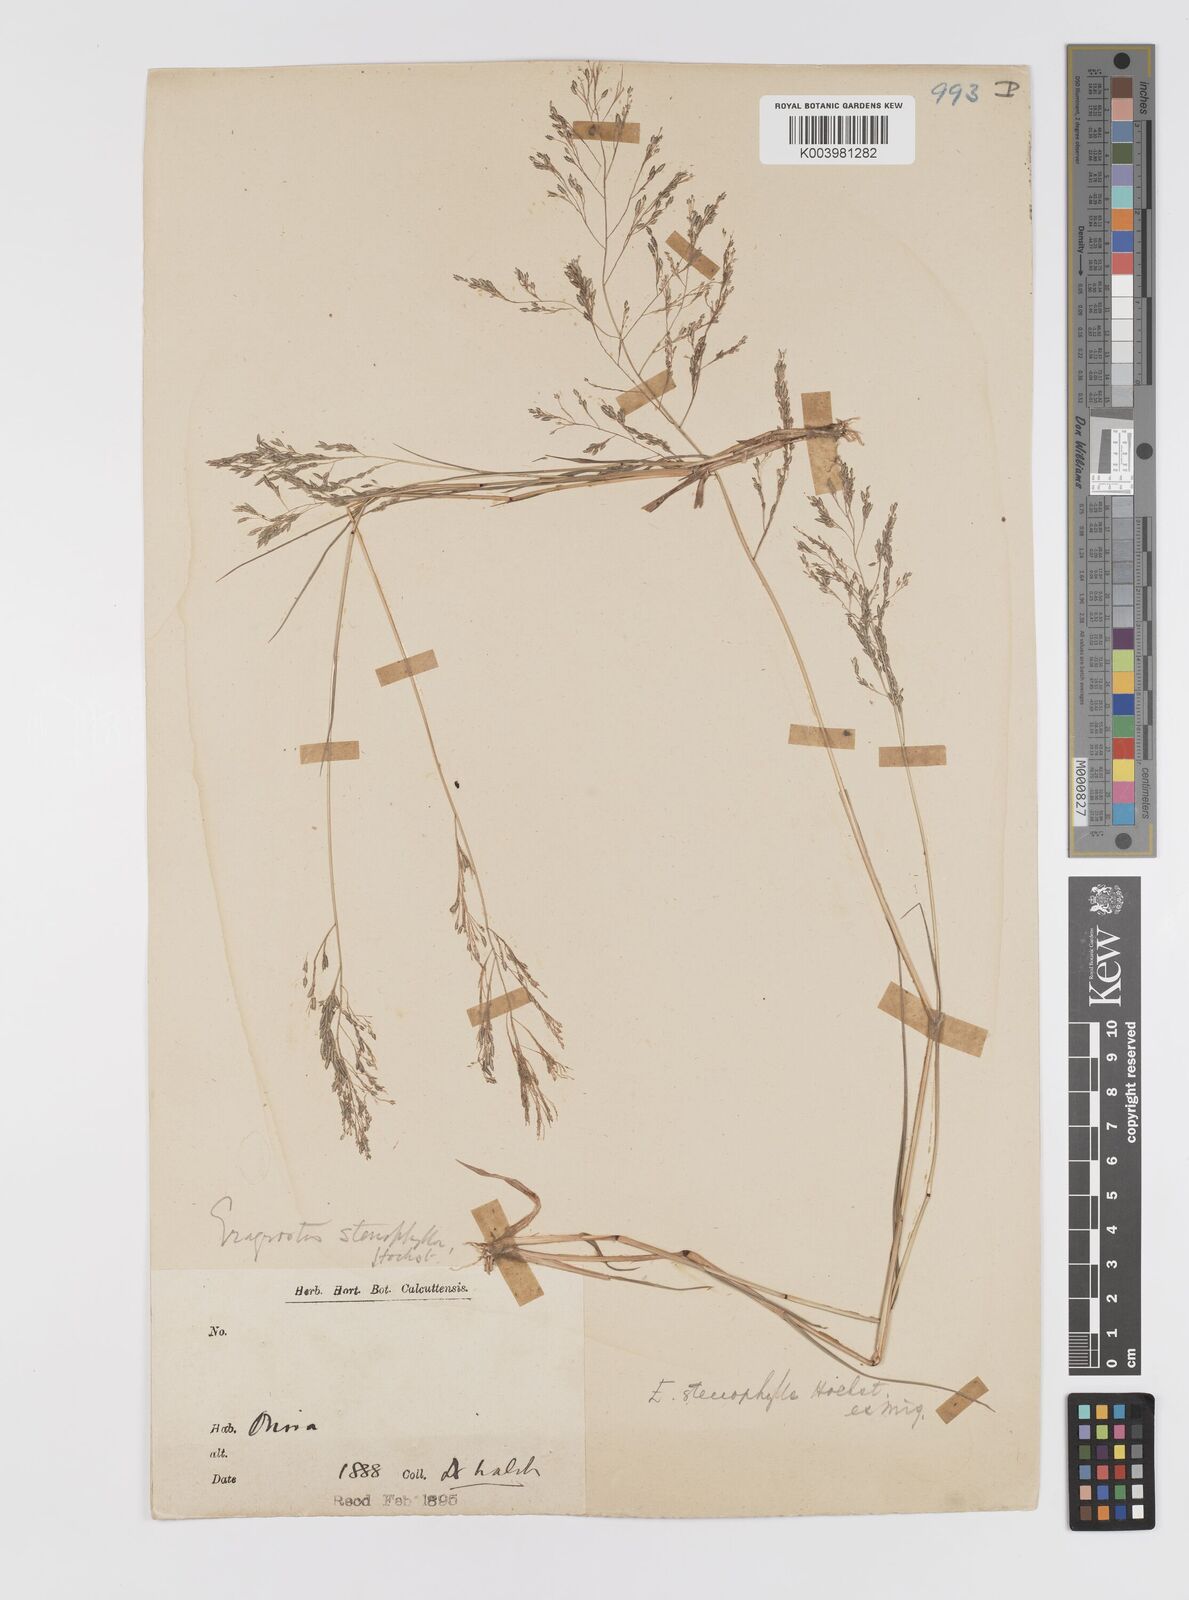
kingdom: Plantae
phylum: Tracheophyta
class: Liliopsida
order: Poales
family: Poaceae
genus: Eragrostis
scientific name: Eragrostis gangetica
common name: Slimflower lovegrass
